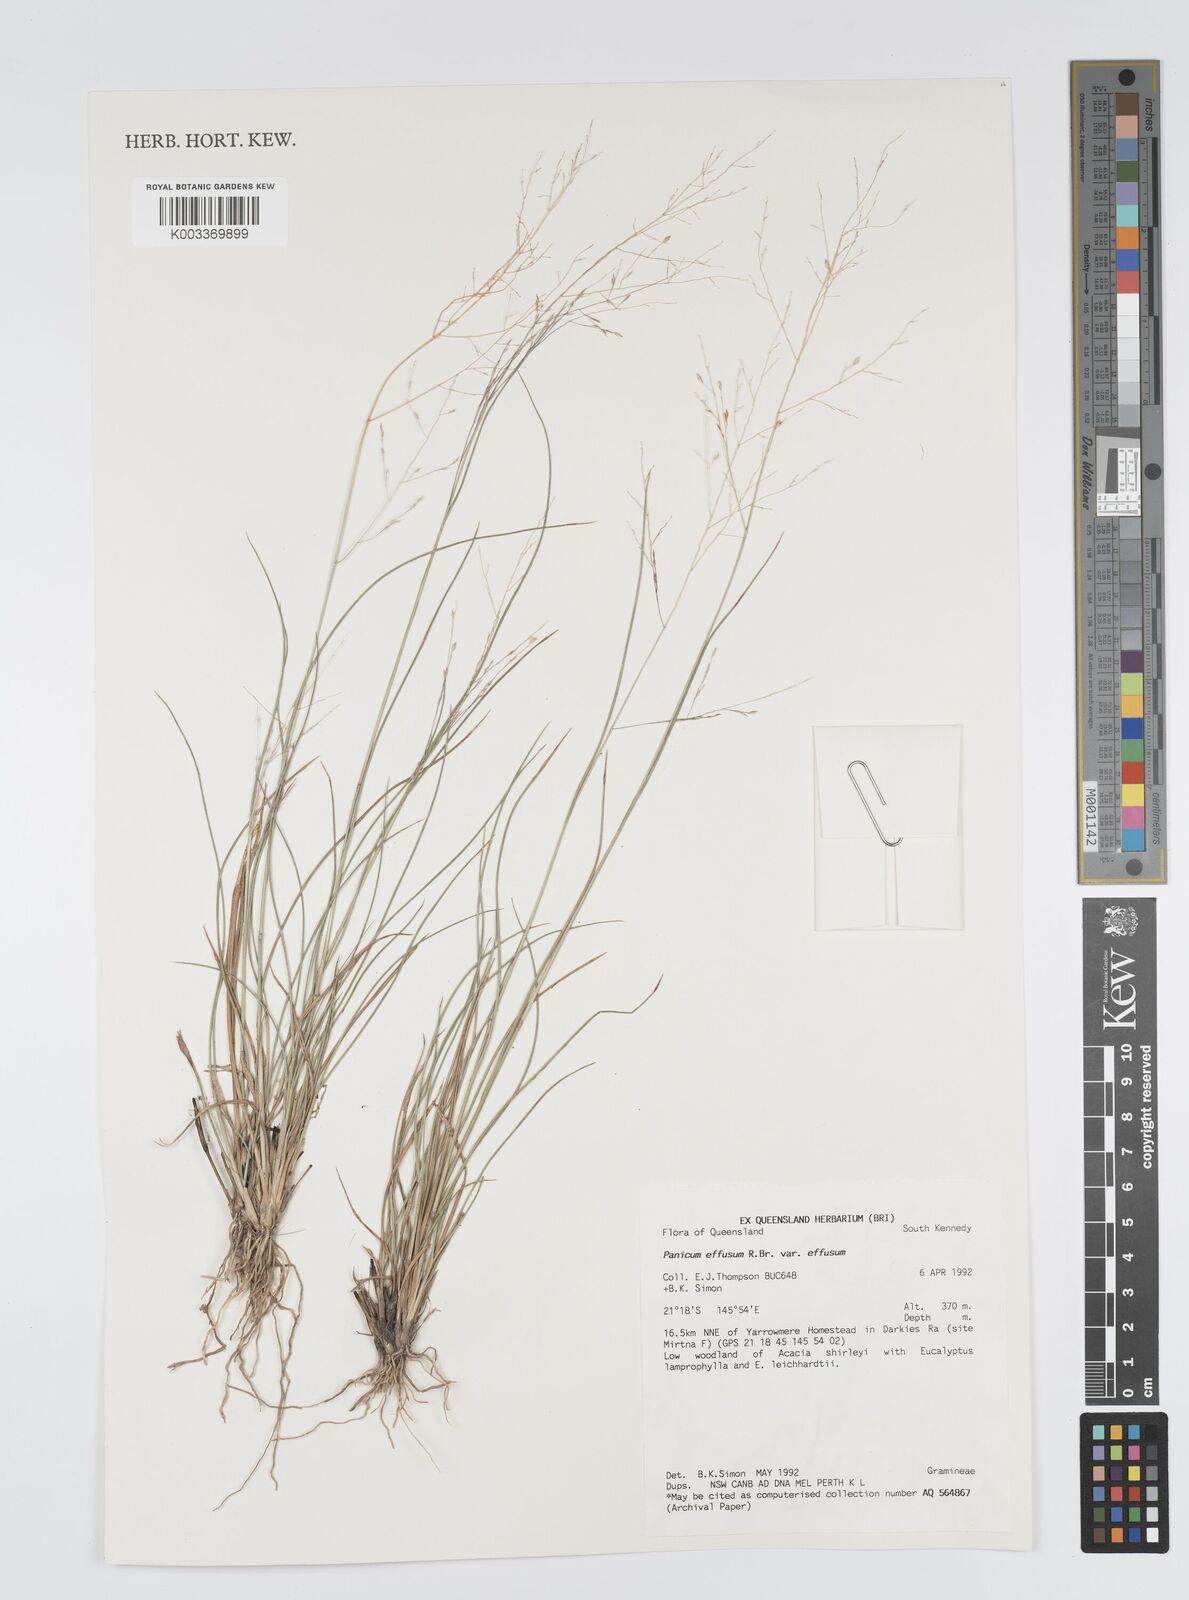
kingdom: Plantae
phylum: Tracheophyta
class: Liliopsida
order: Poales
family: Poaceae
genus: Panicum
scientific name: Panicum effusum
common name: Hairy panic grass
